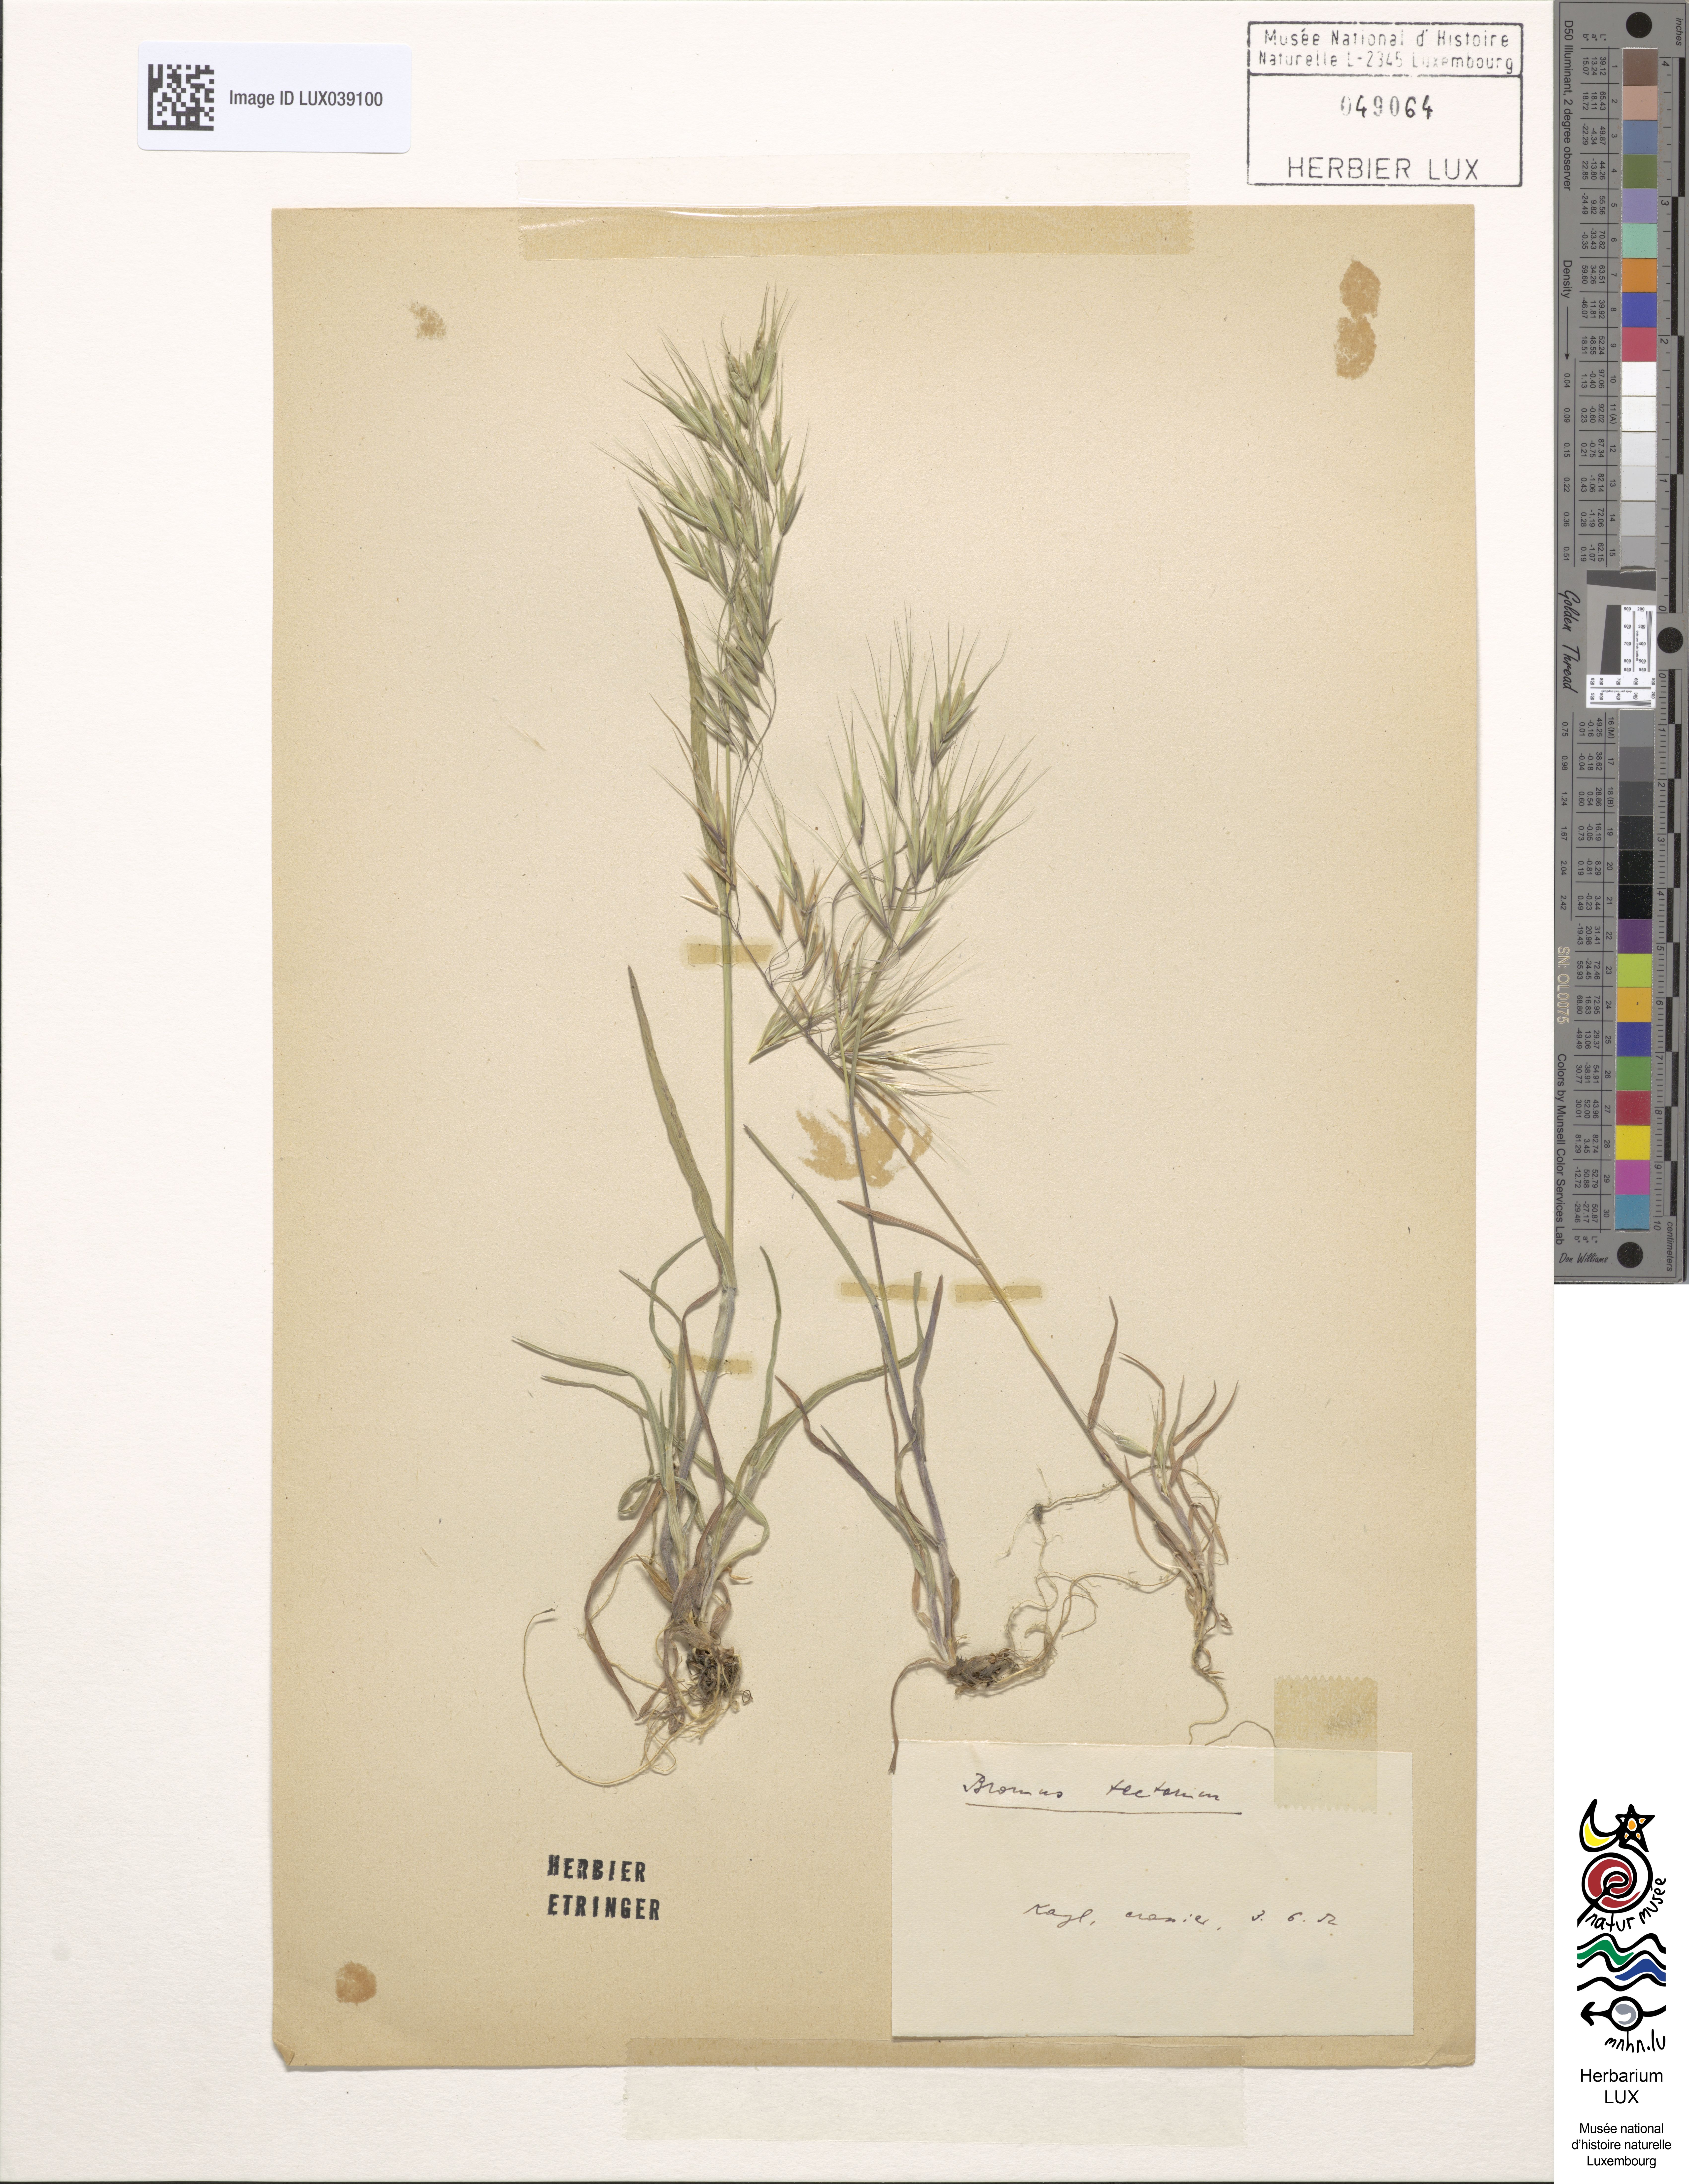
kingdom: Plantae
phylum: Tracheophyta
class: Liliopsida
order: Poales
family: Poaceae
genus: Bromus
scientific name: Bromus tectorum
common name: Cheatgrass
